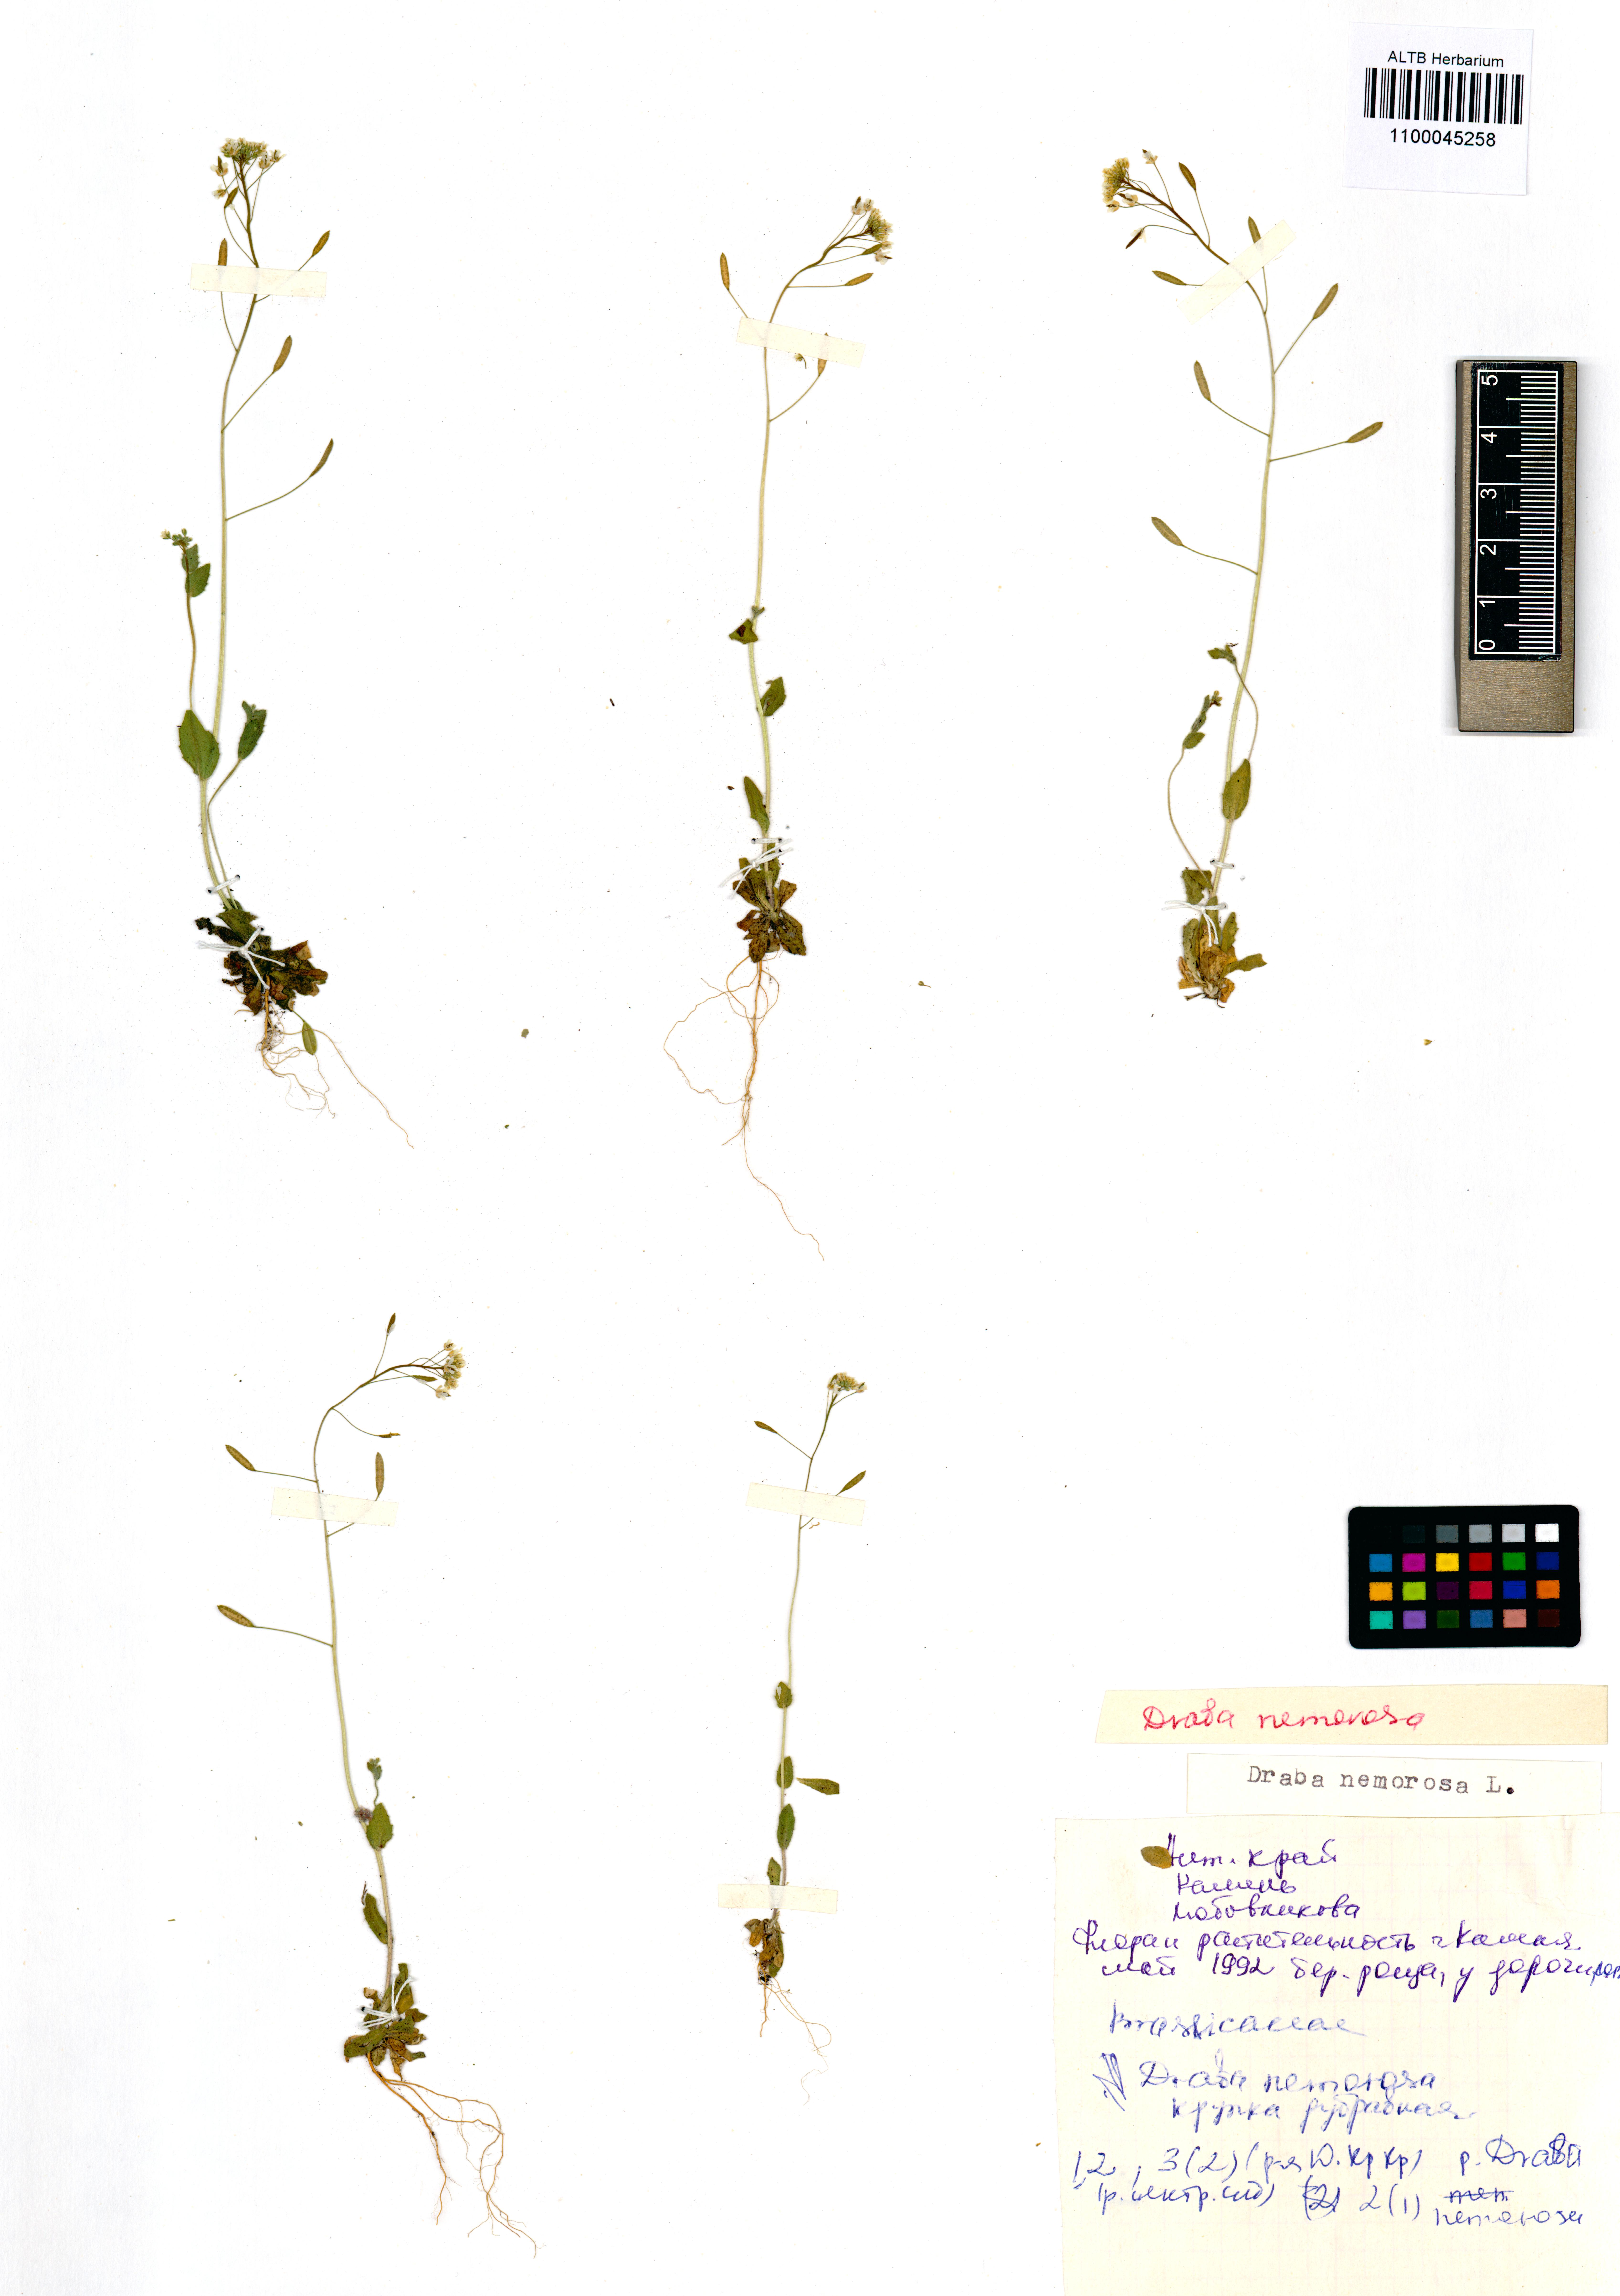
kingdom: Plantae
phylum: Tracheophyta
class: Magnoliopsida
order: Brassicales
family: Brassicaceae
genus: Draba
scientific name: Draba nemorosa
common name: Wood whitlow-grass
